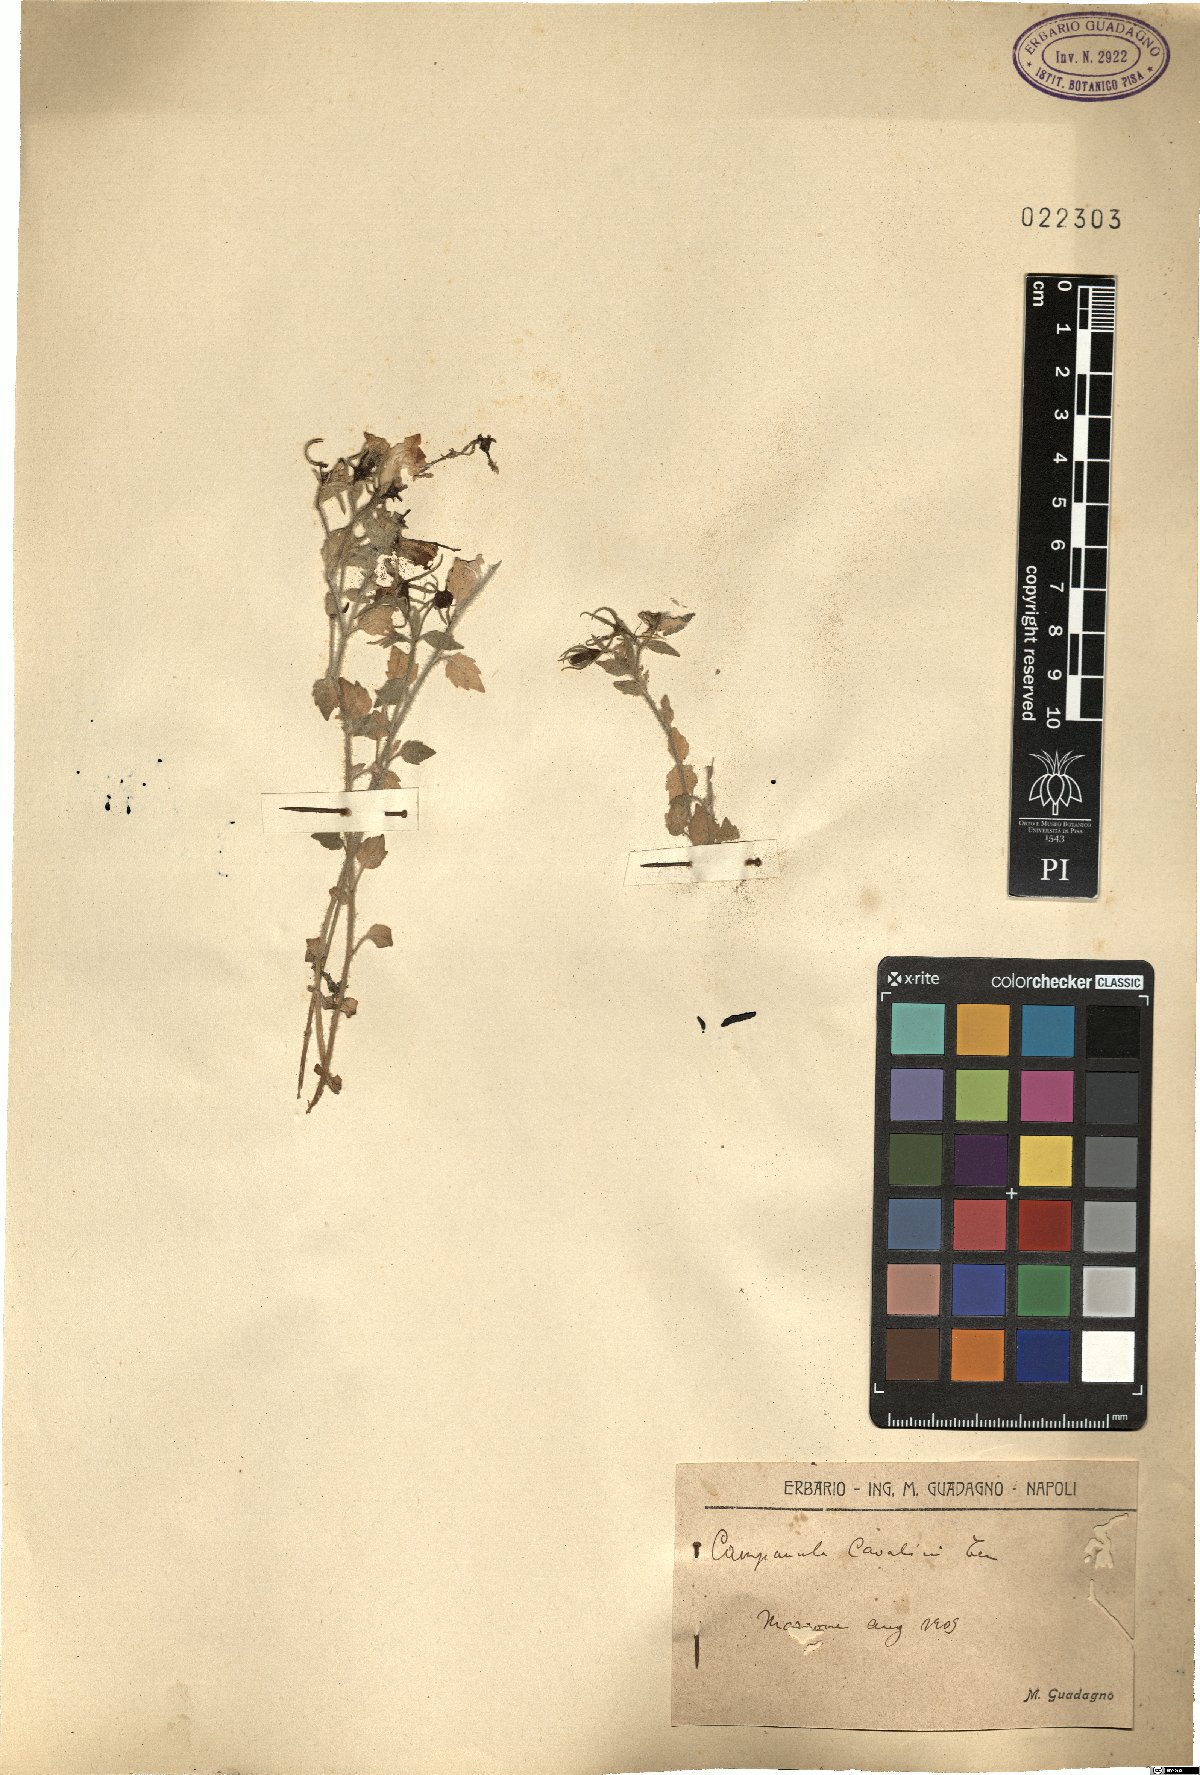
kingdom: Plantae
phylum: Tracheophyta
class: Magnoliopsida
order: Asterales
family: Campanulaceae
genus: Campanula
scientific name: Campanula fragilis
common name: Italian bellflower
